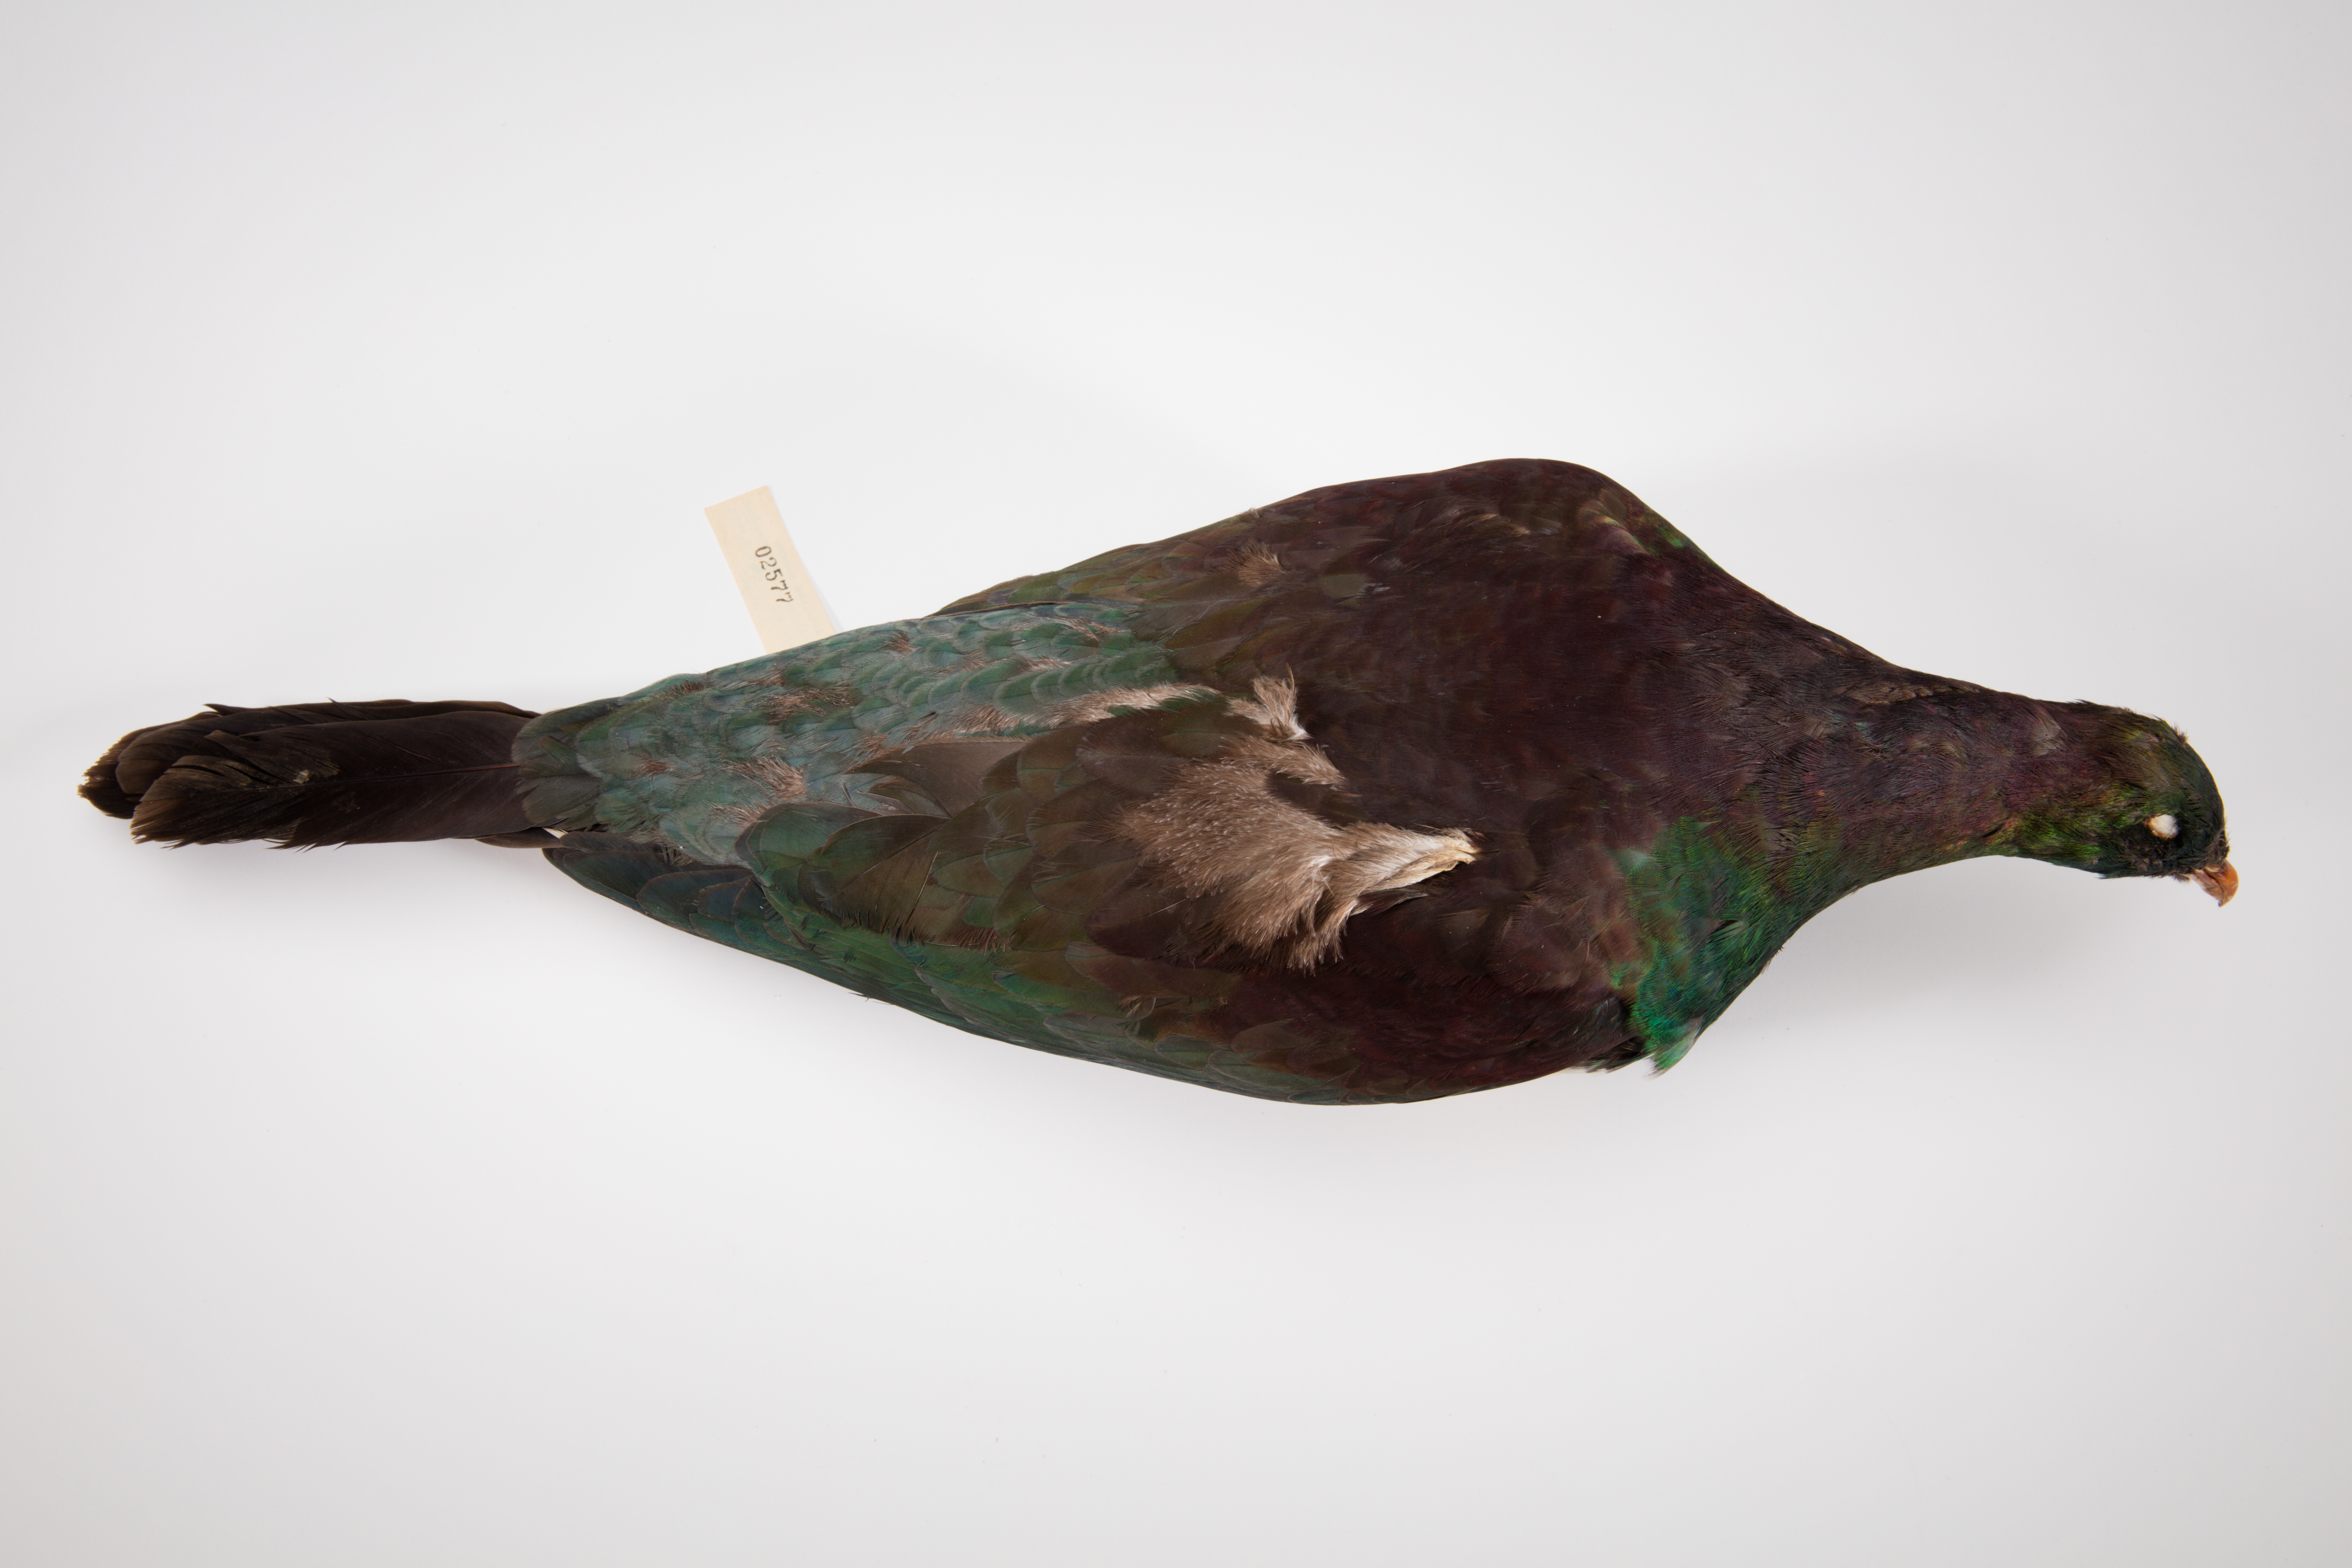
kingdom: Animalia
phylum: Chordata
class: Aves
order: Columbiformes
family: Columbidae
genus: Hemiphaga
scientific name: Hemiphaga novaeseelandiae
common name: New zealand pigeon
